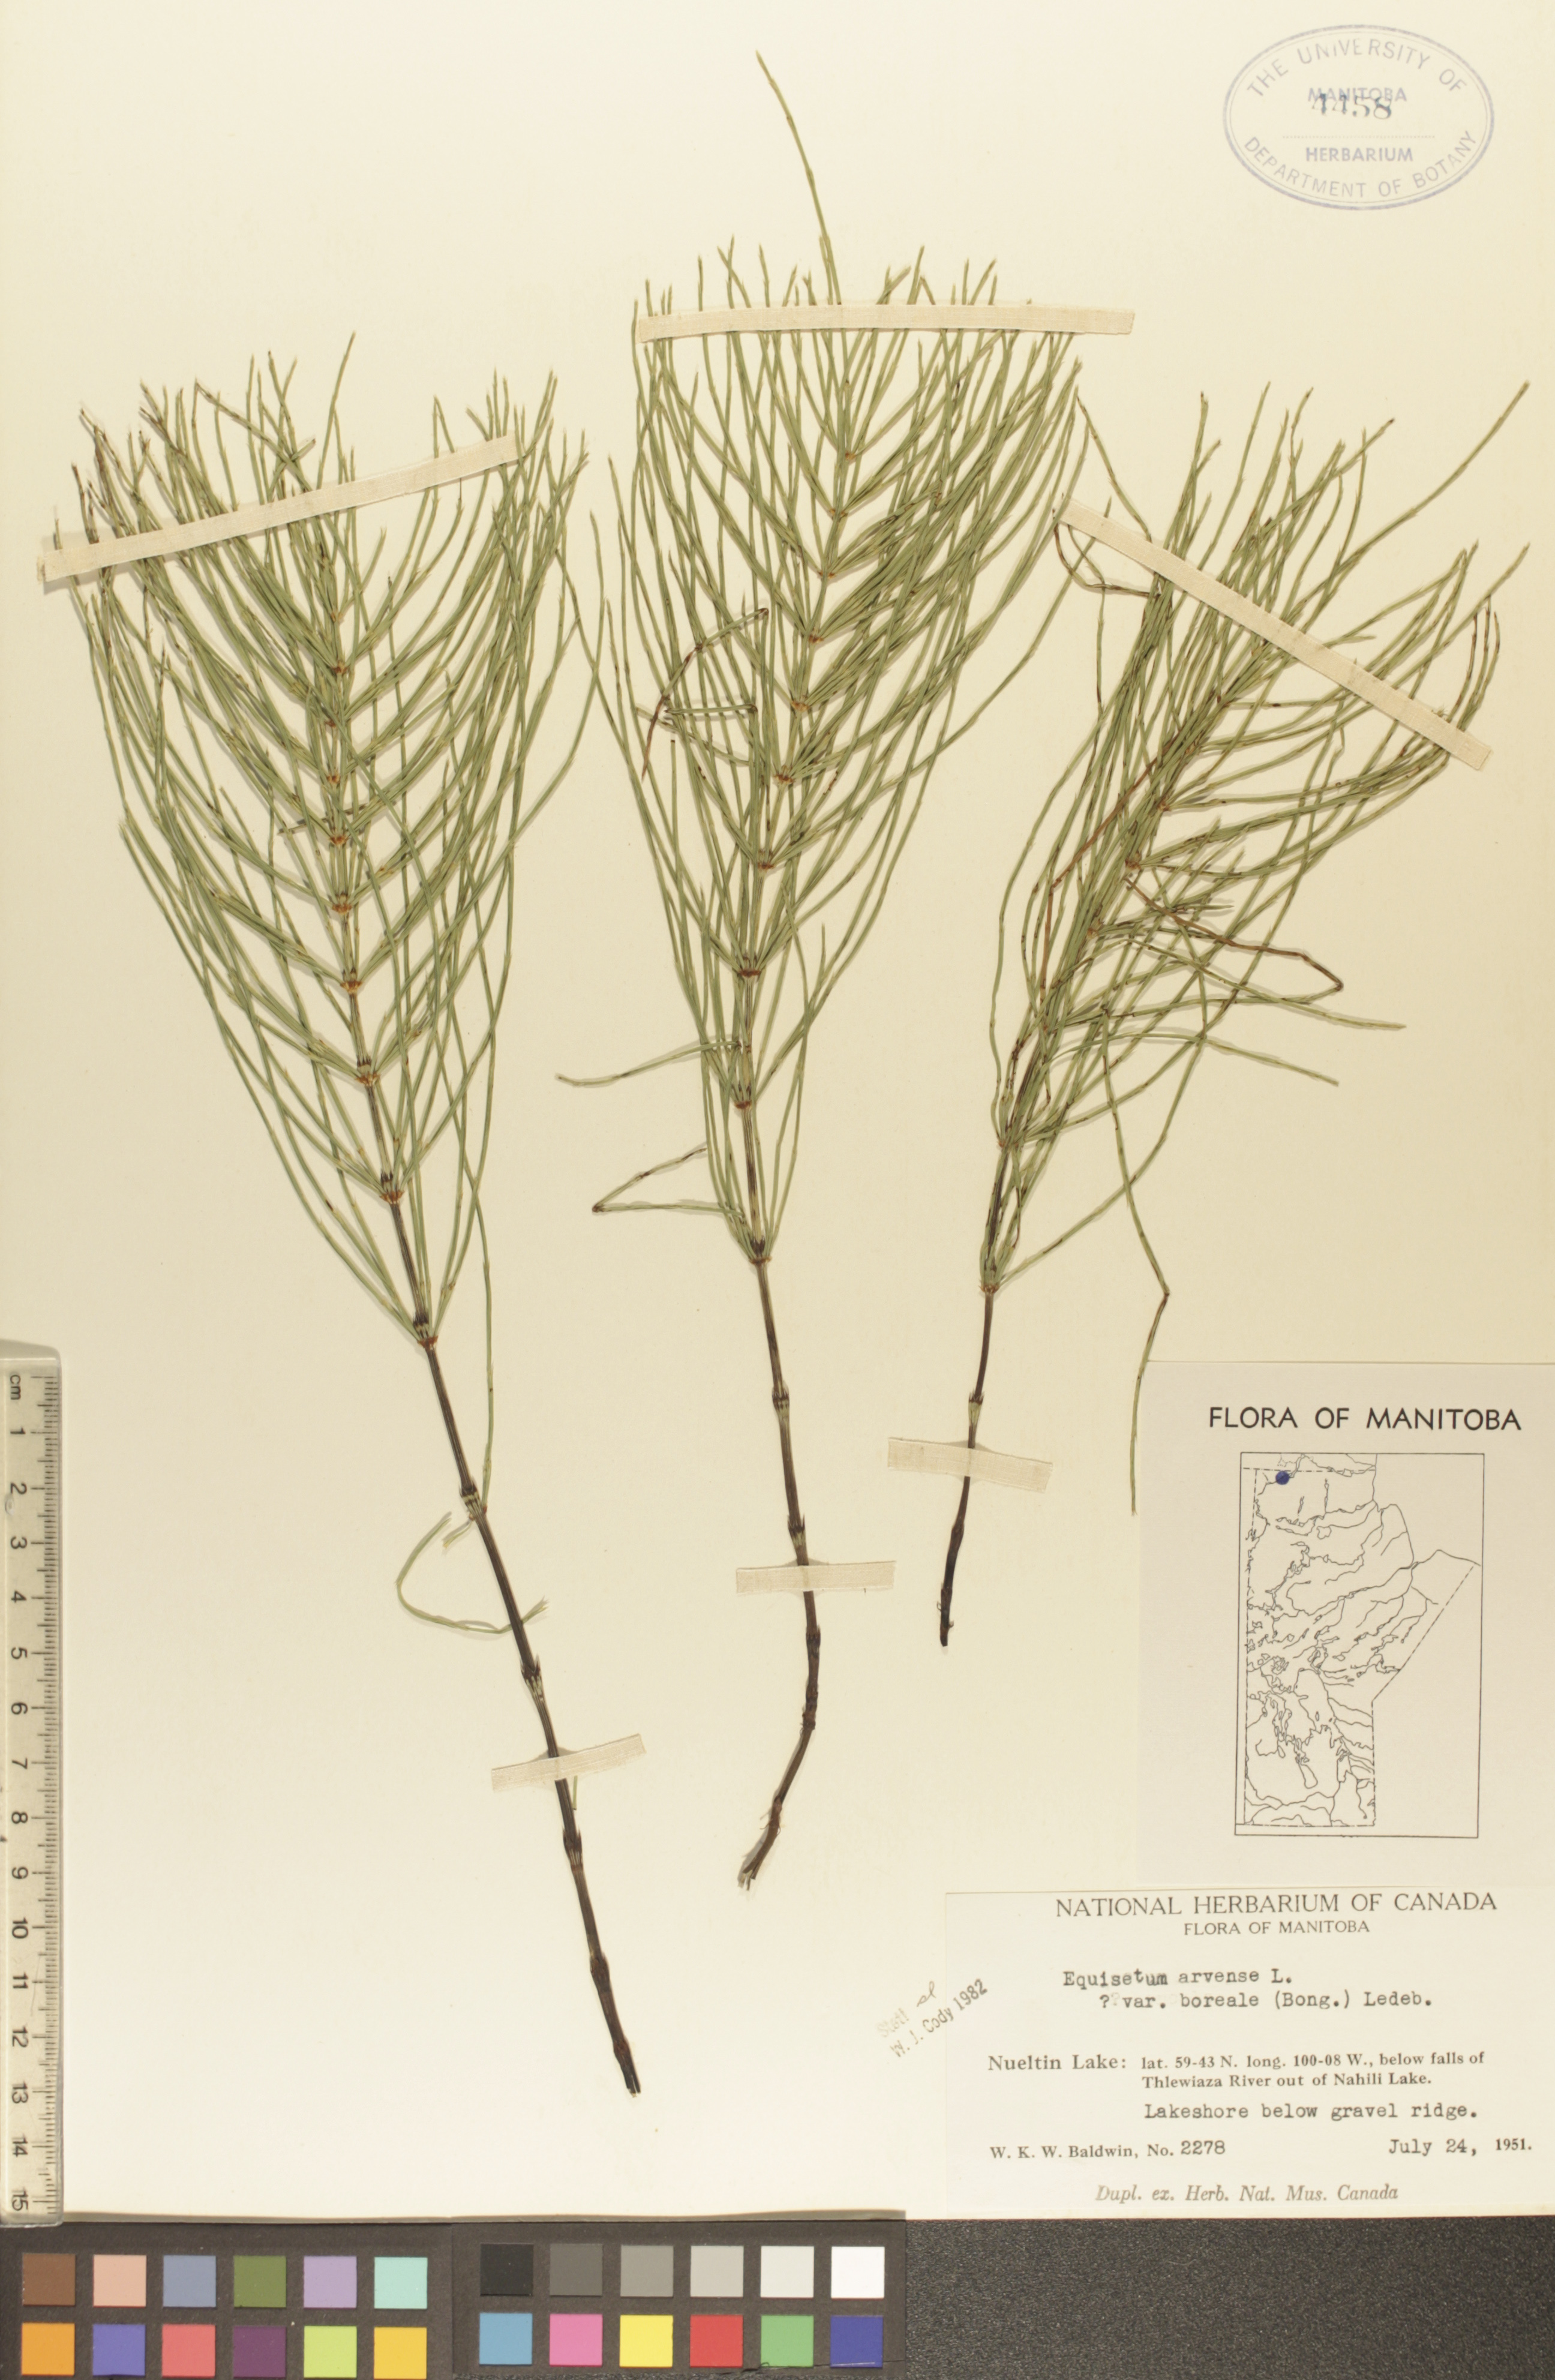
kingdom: Plantae
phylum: Tracheophyta
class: Polypodiopsida
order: Equisetales
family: Equisetaceae
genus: Equisetum
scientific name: Equisetum arvense
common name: Field horsetail
